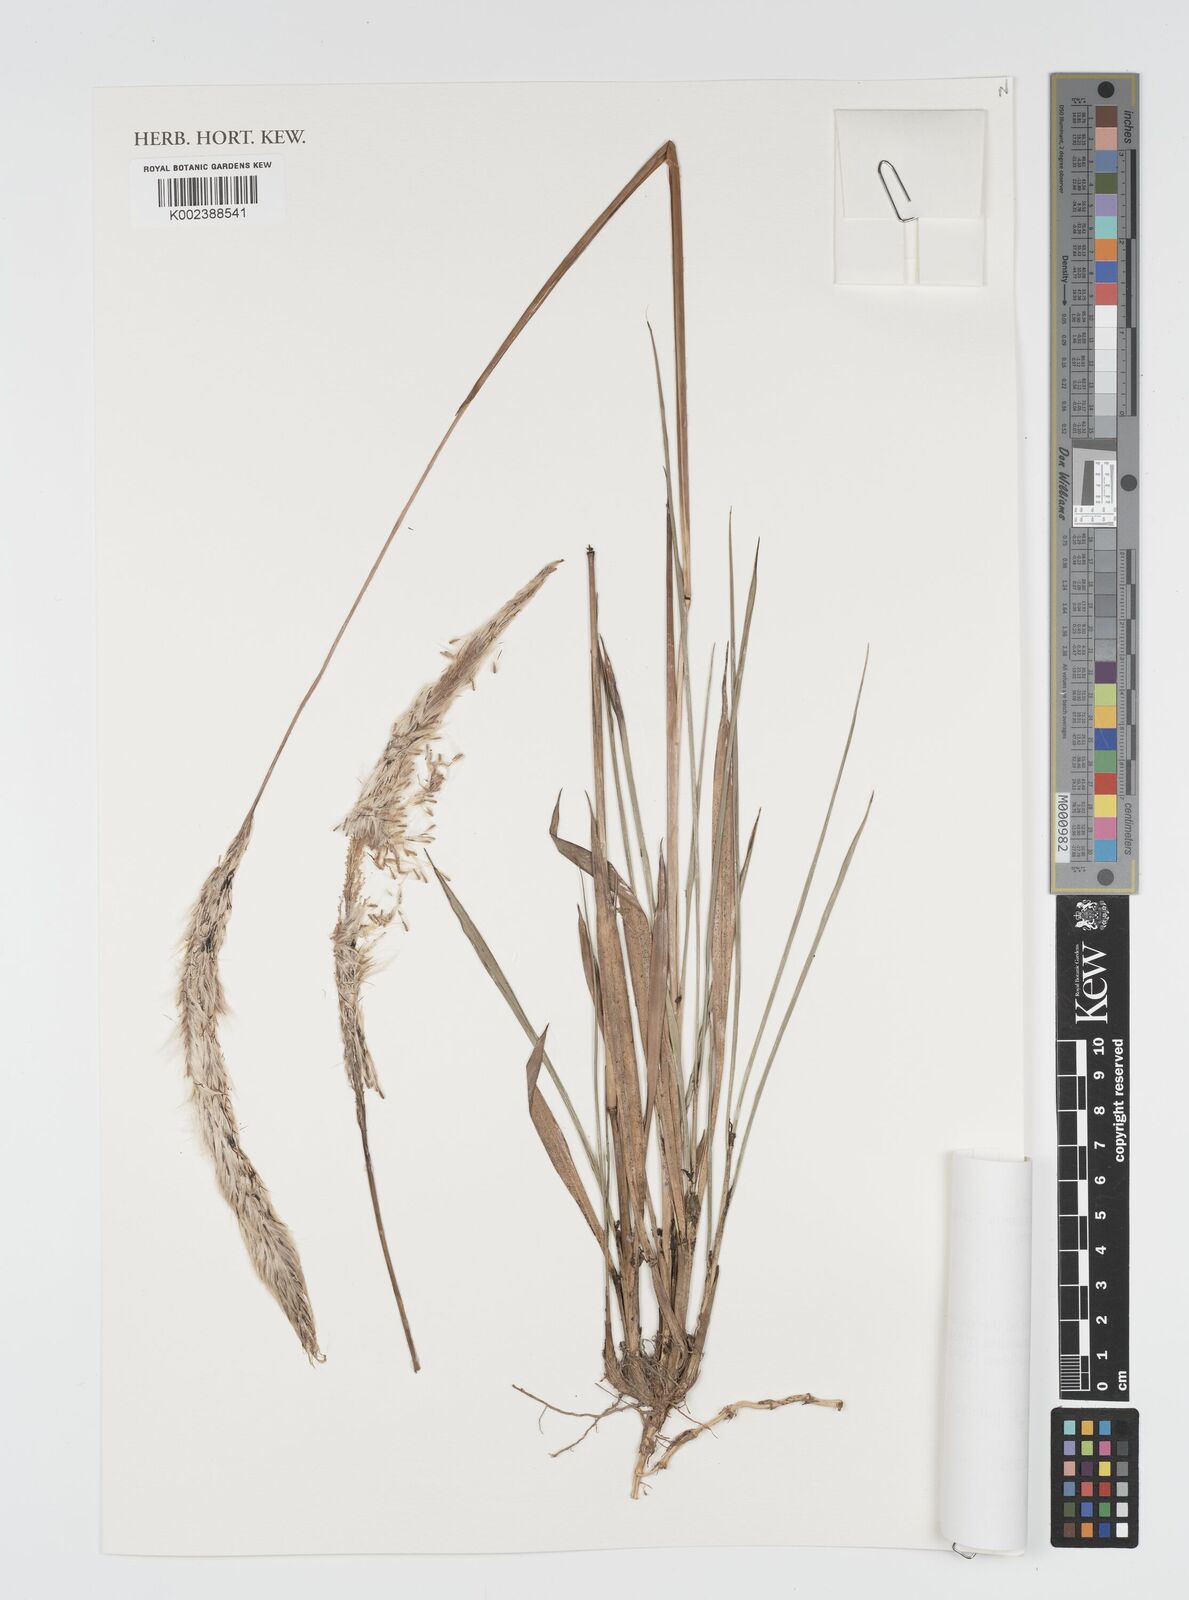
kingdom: Plantae
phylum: Tracheophyta
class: Liliopsida
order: Poales
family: Poaceae
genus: Imperata
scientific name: Imperata conferta
